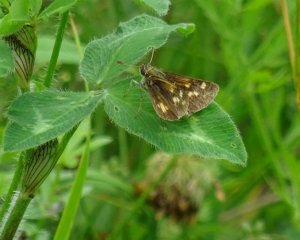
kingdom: Animalia
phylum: Arthropoda
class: Insecta
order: Lepidoptera
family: Hesperiidae
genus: Polites
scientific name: Polites coras
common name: Peck's Skipper
